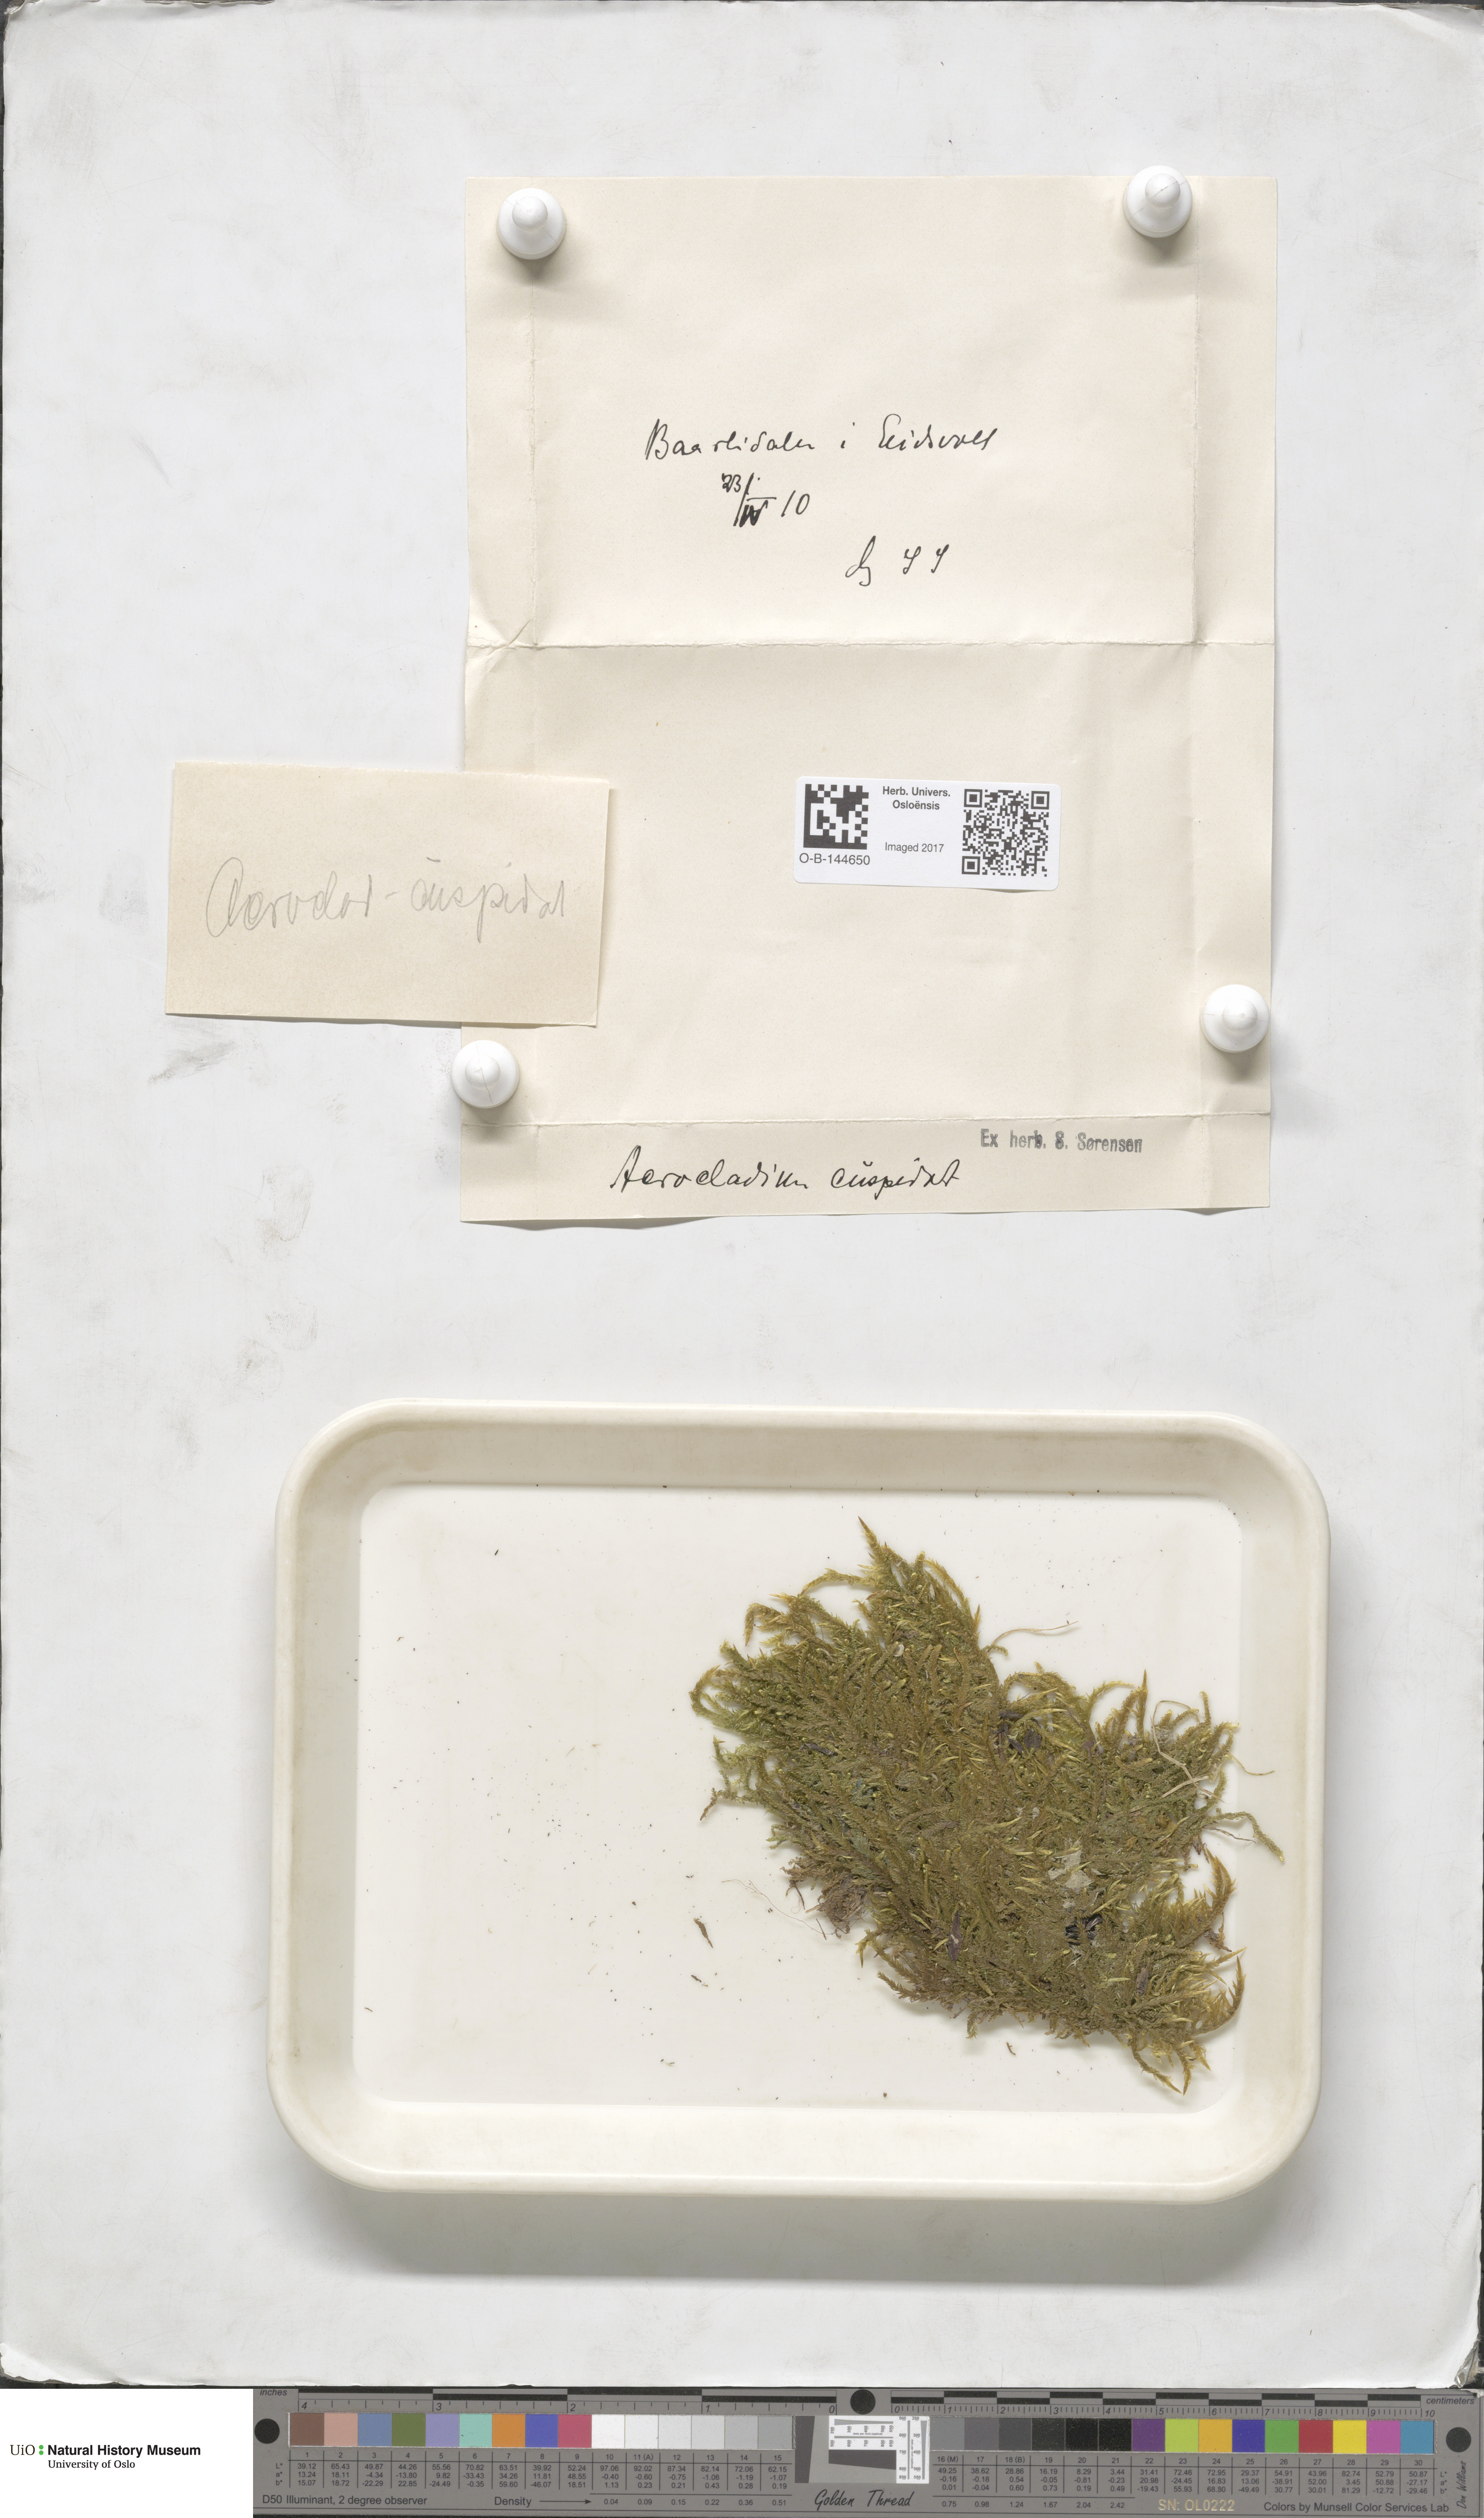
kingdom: Plantae
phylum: Bryophyta
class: Bryopsida
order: Hypnales
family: Pylaisiaceae
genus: Calliergonella
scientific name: Calliergonella cuspidata
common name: Common large wetland moss
